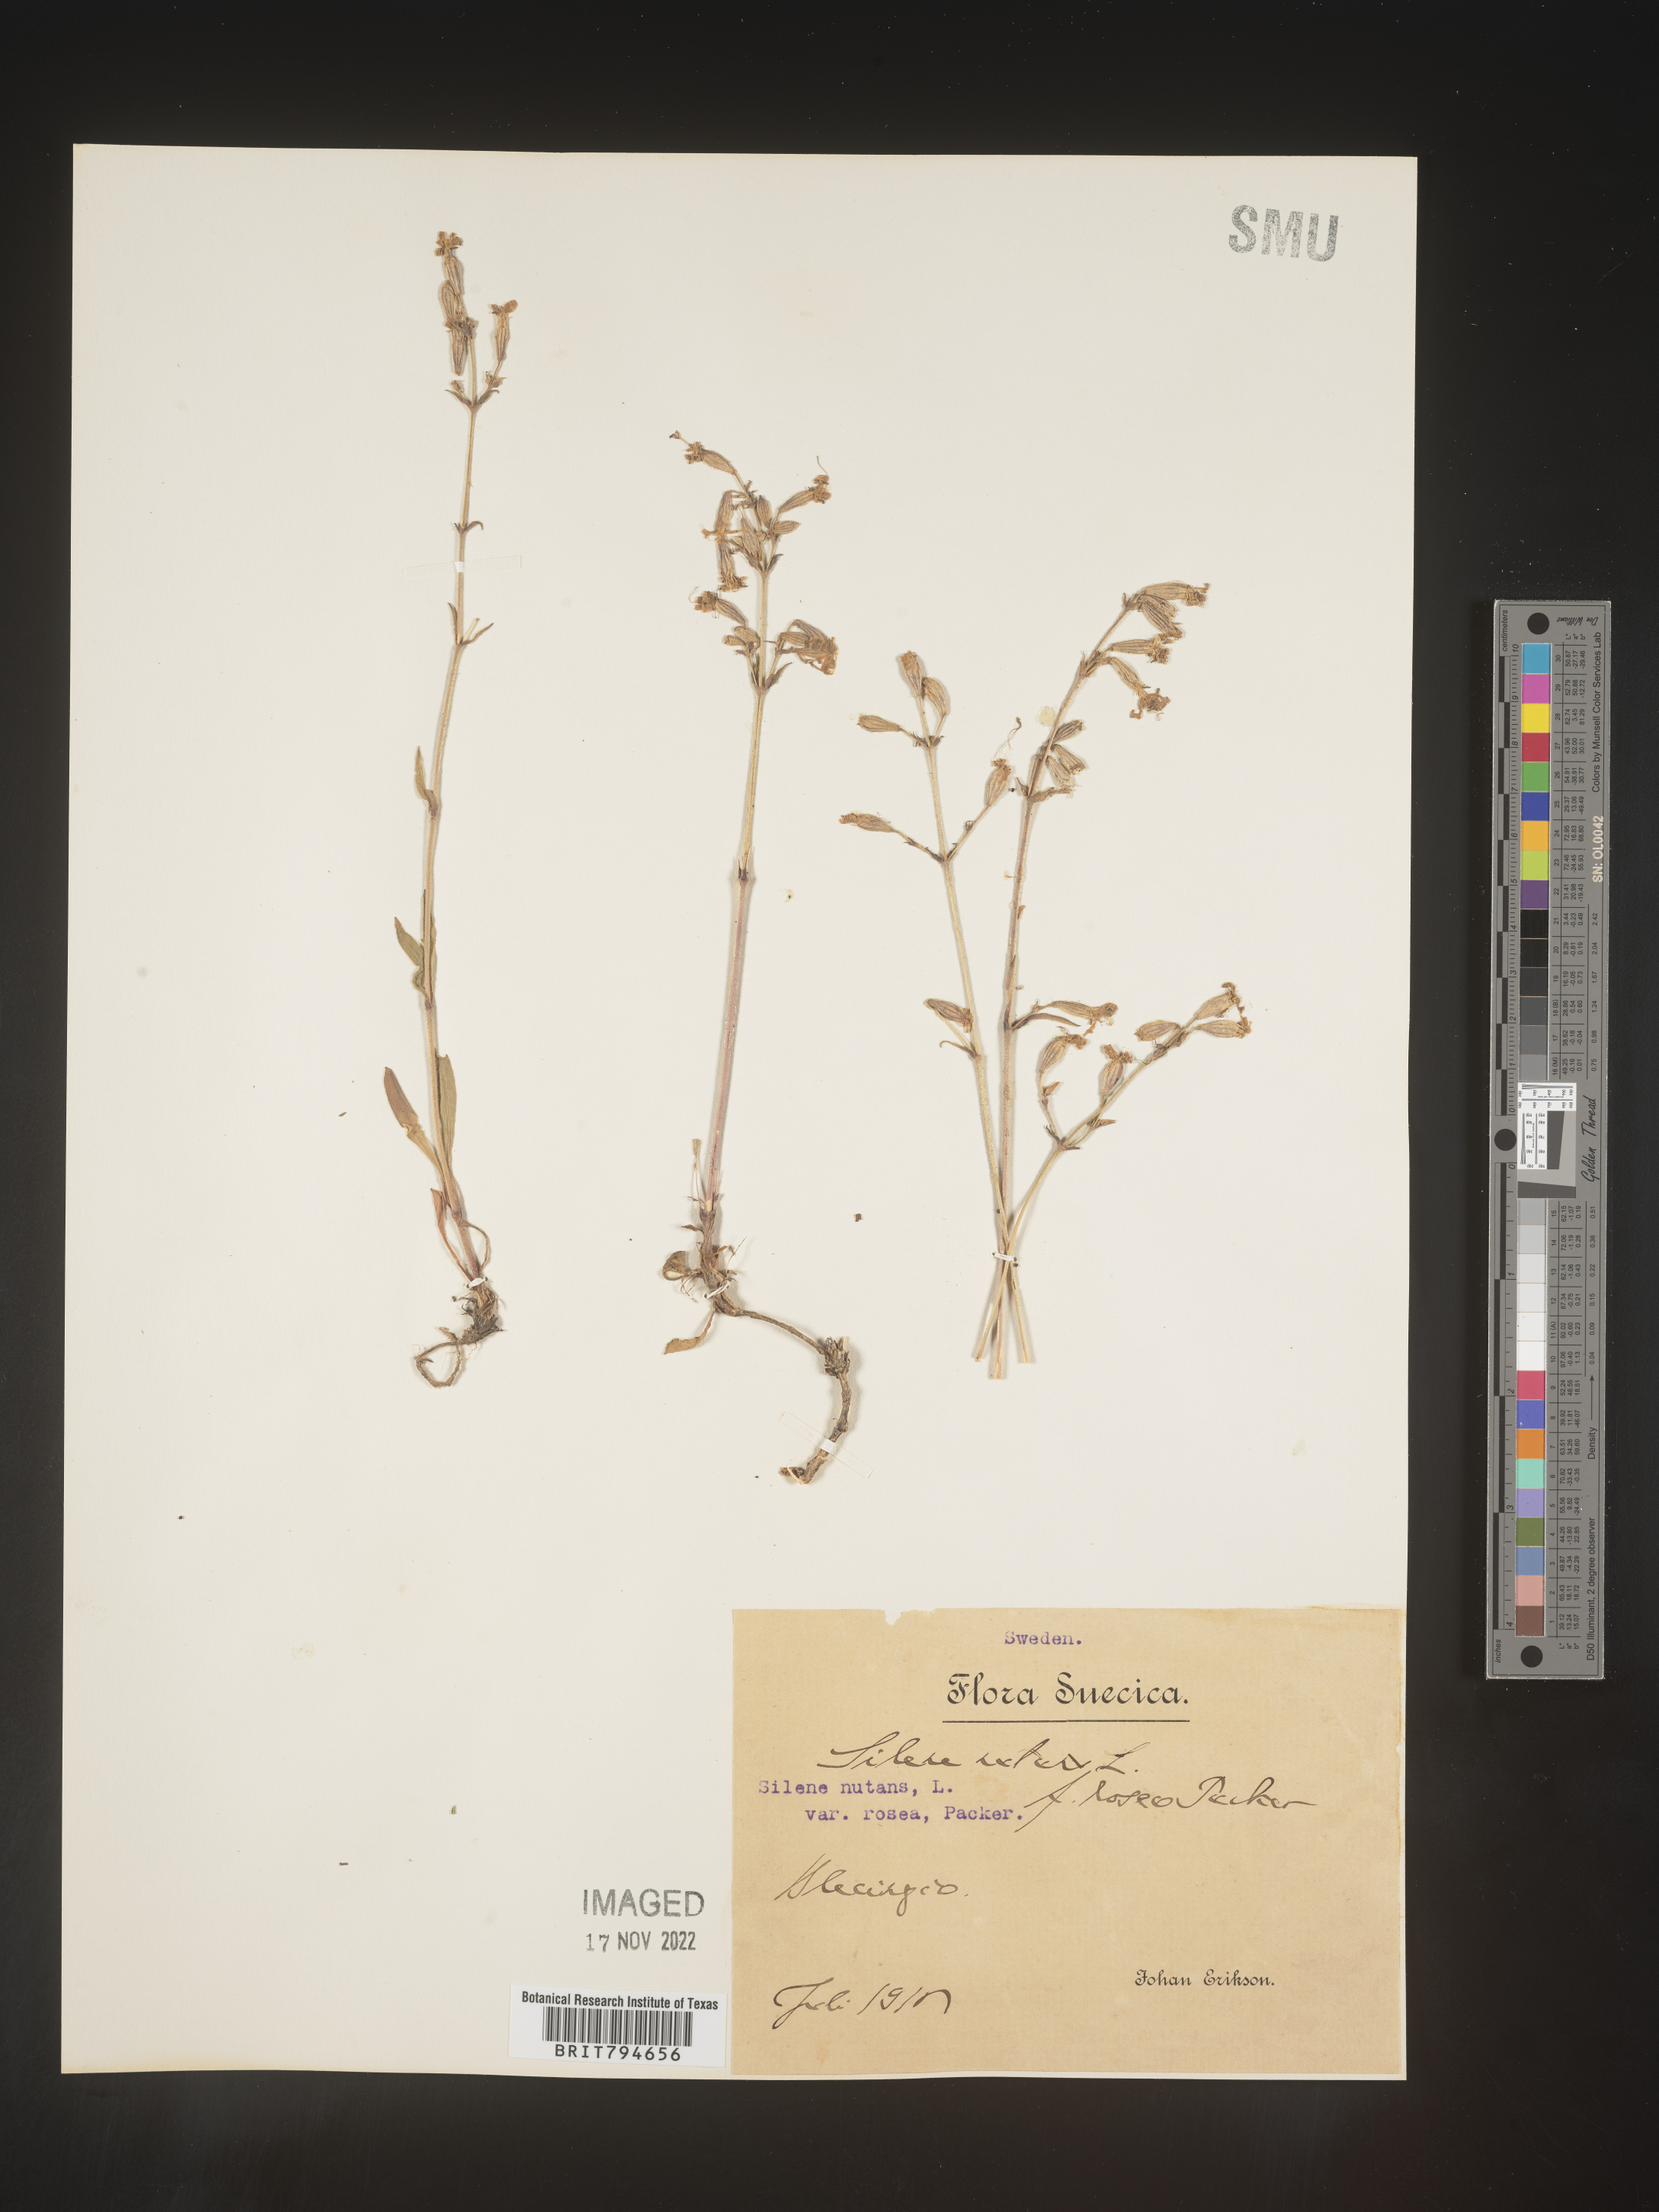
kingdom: Plantae
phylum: Tracheophyta
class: Magnoliopsida
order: Caryophyllales
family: Caryophyllaceae
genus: Silene
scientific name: Silene nutans
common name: Nottingham catchfly
